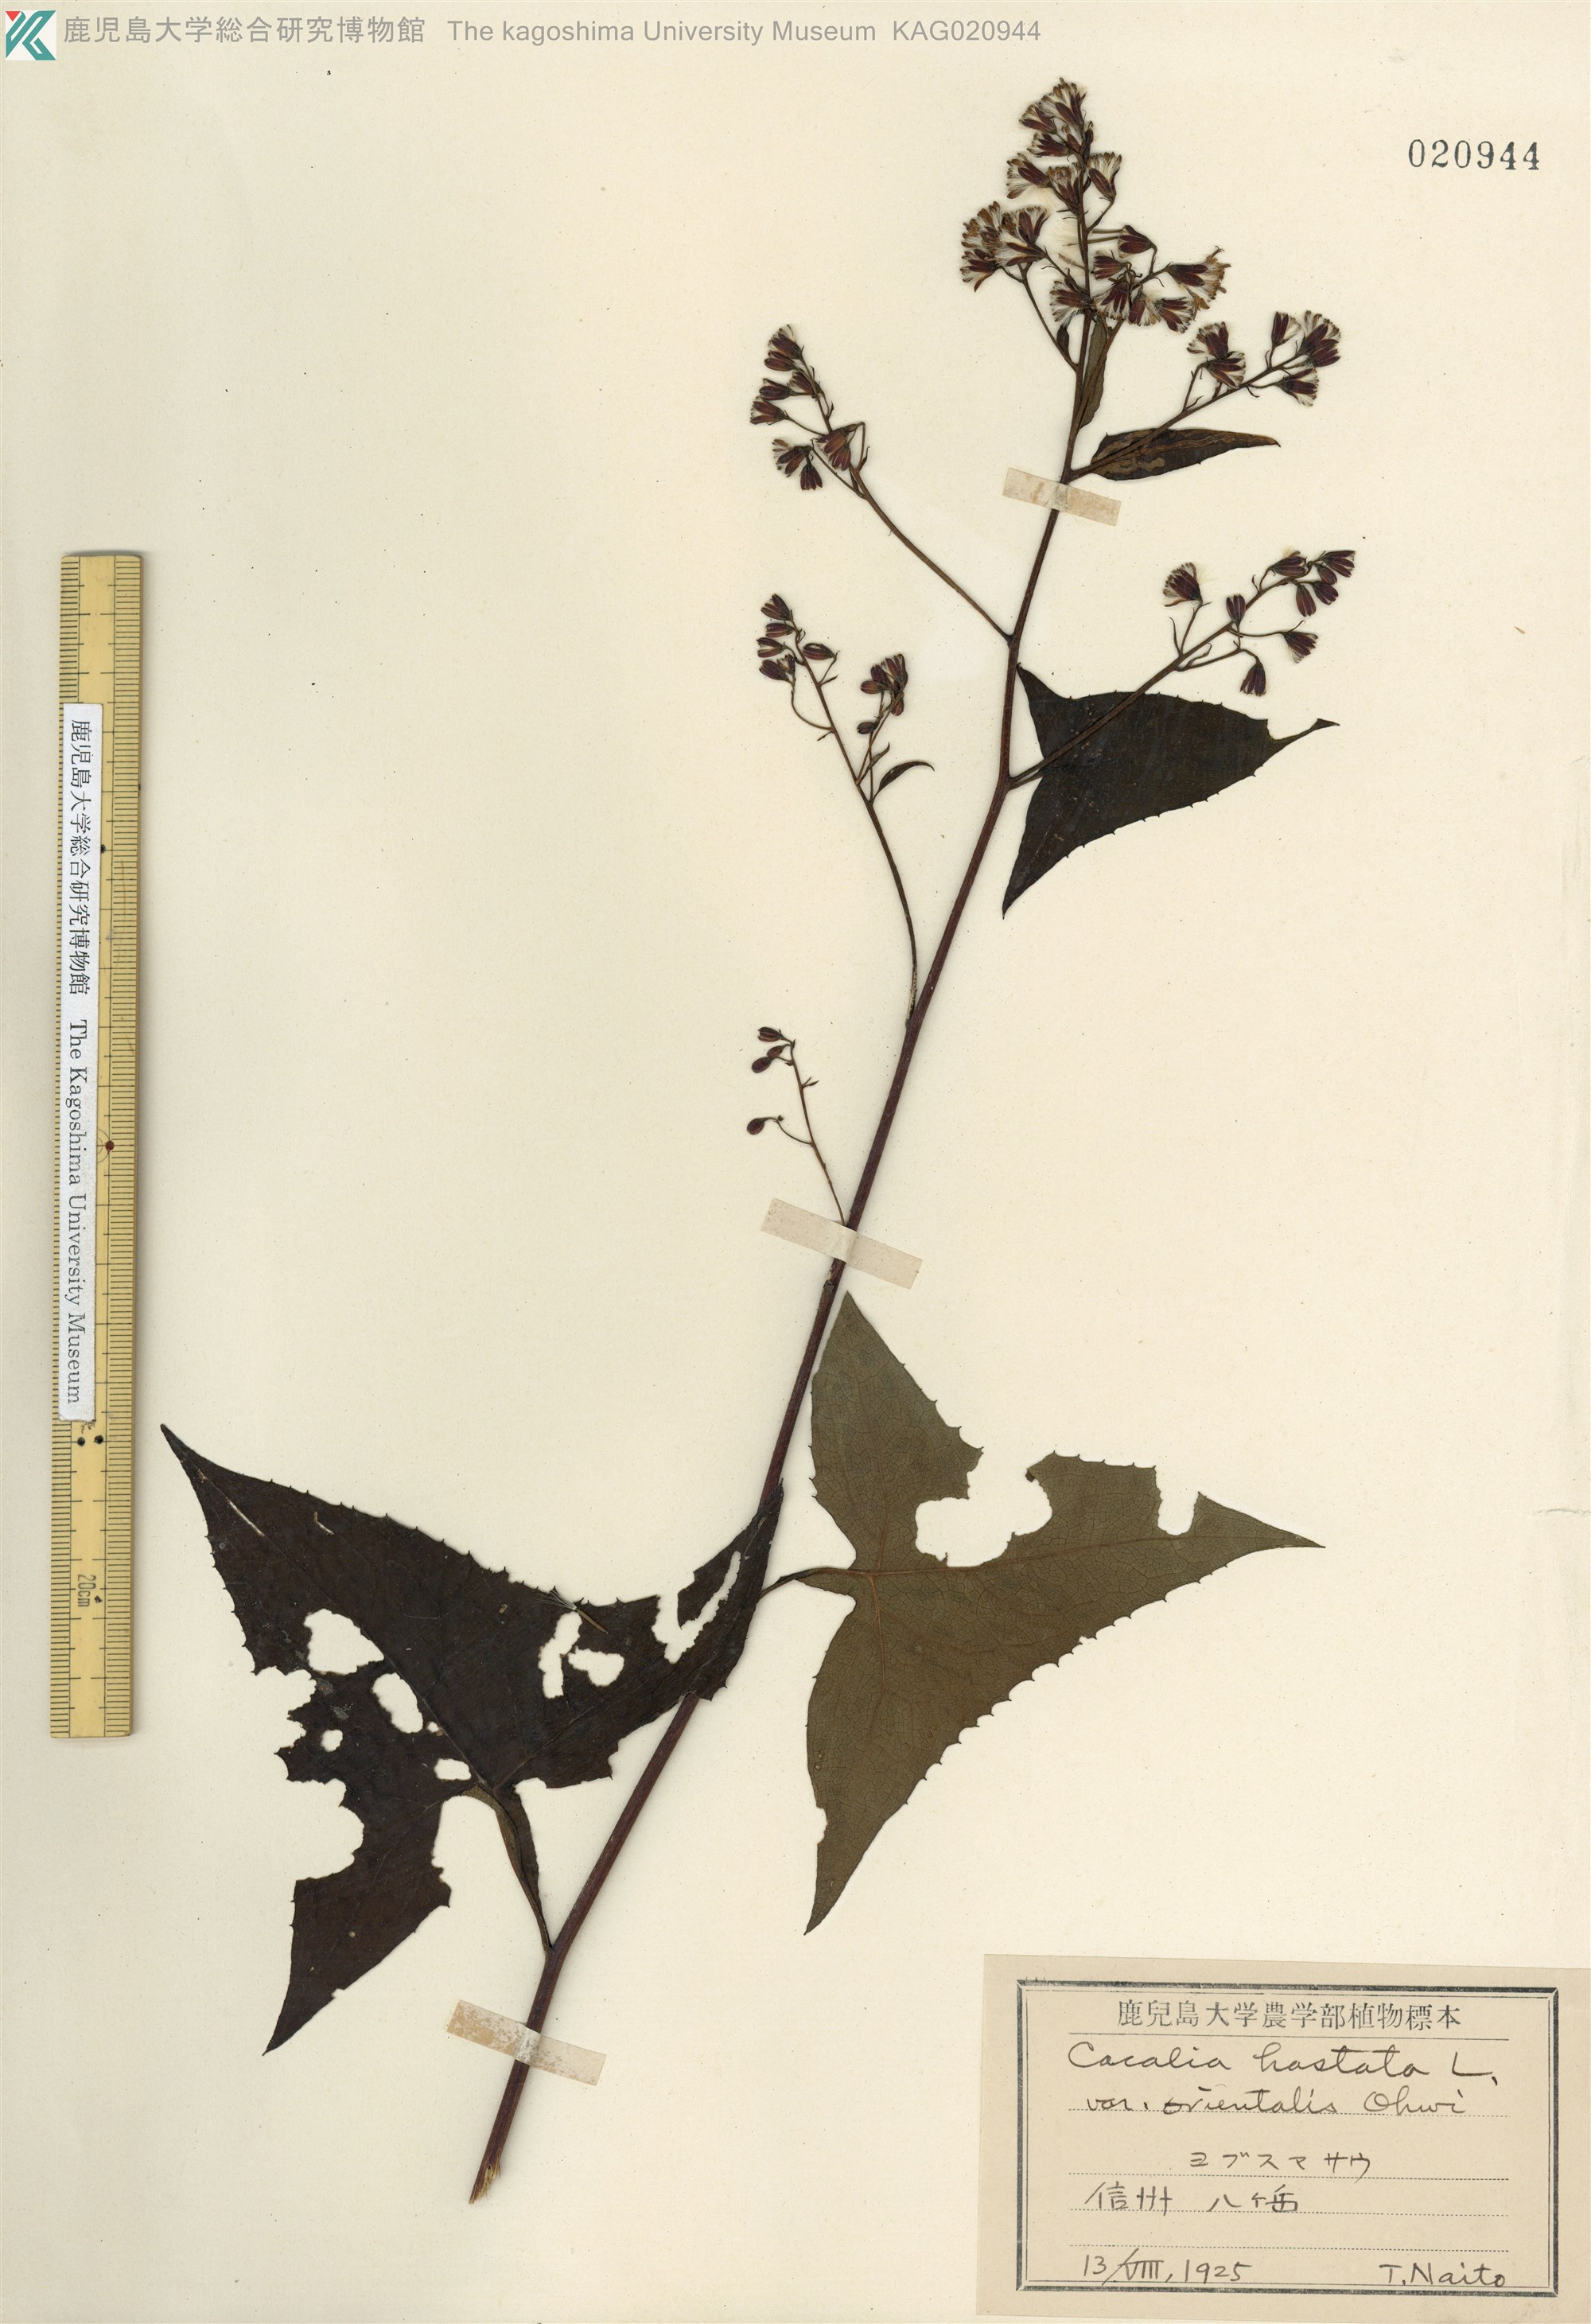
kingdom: Plantae
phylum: Tracheophyta
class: Magnoliopsida
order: Asterales
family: Asteraceae
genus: Parasenecio
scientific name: Parasenecio
